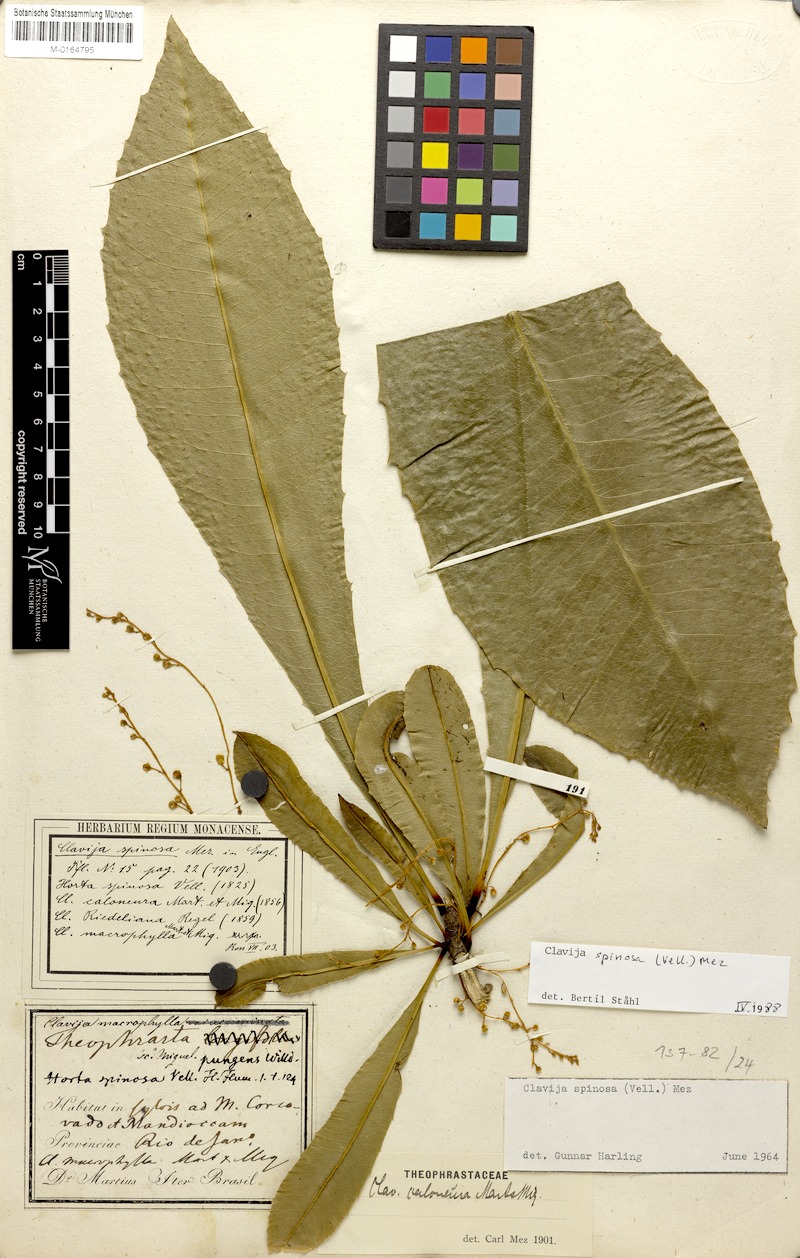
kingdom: Plantae
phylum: Tracheophyta
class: Magnoliopsida
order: Ericales
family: Primulaceae
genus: Clavija
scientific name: Clavija spinosa
